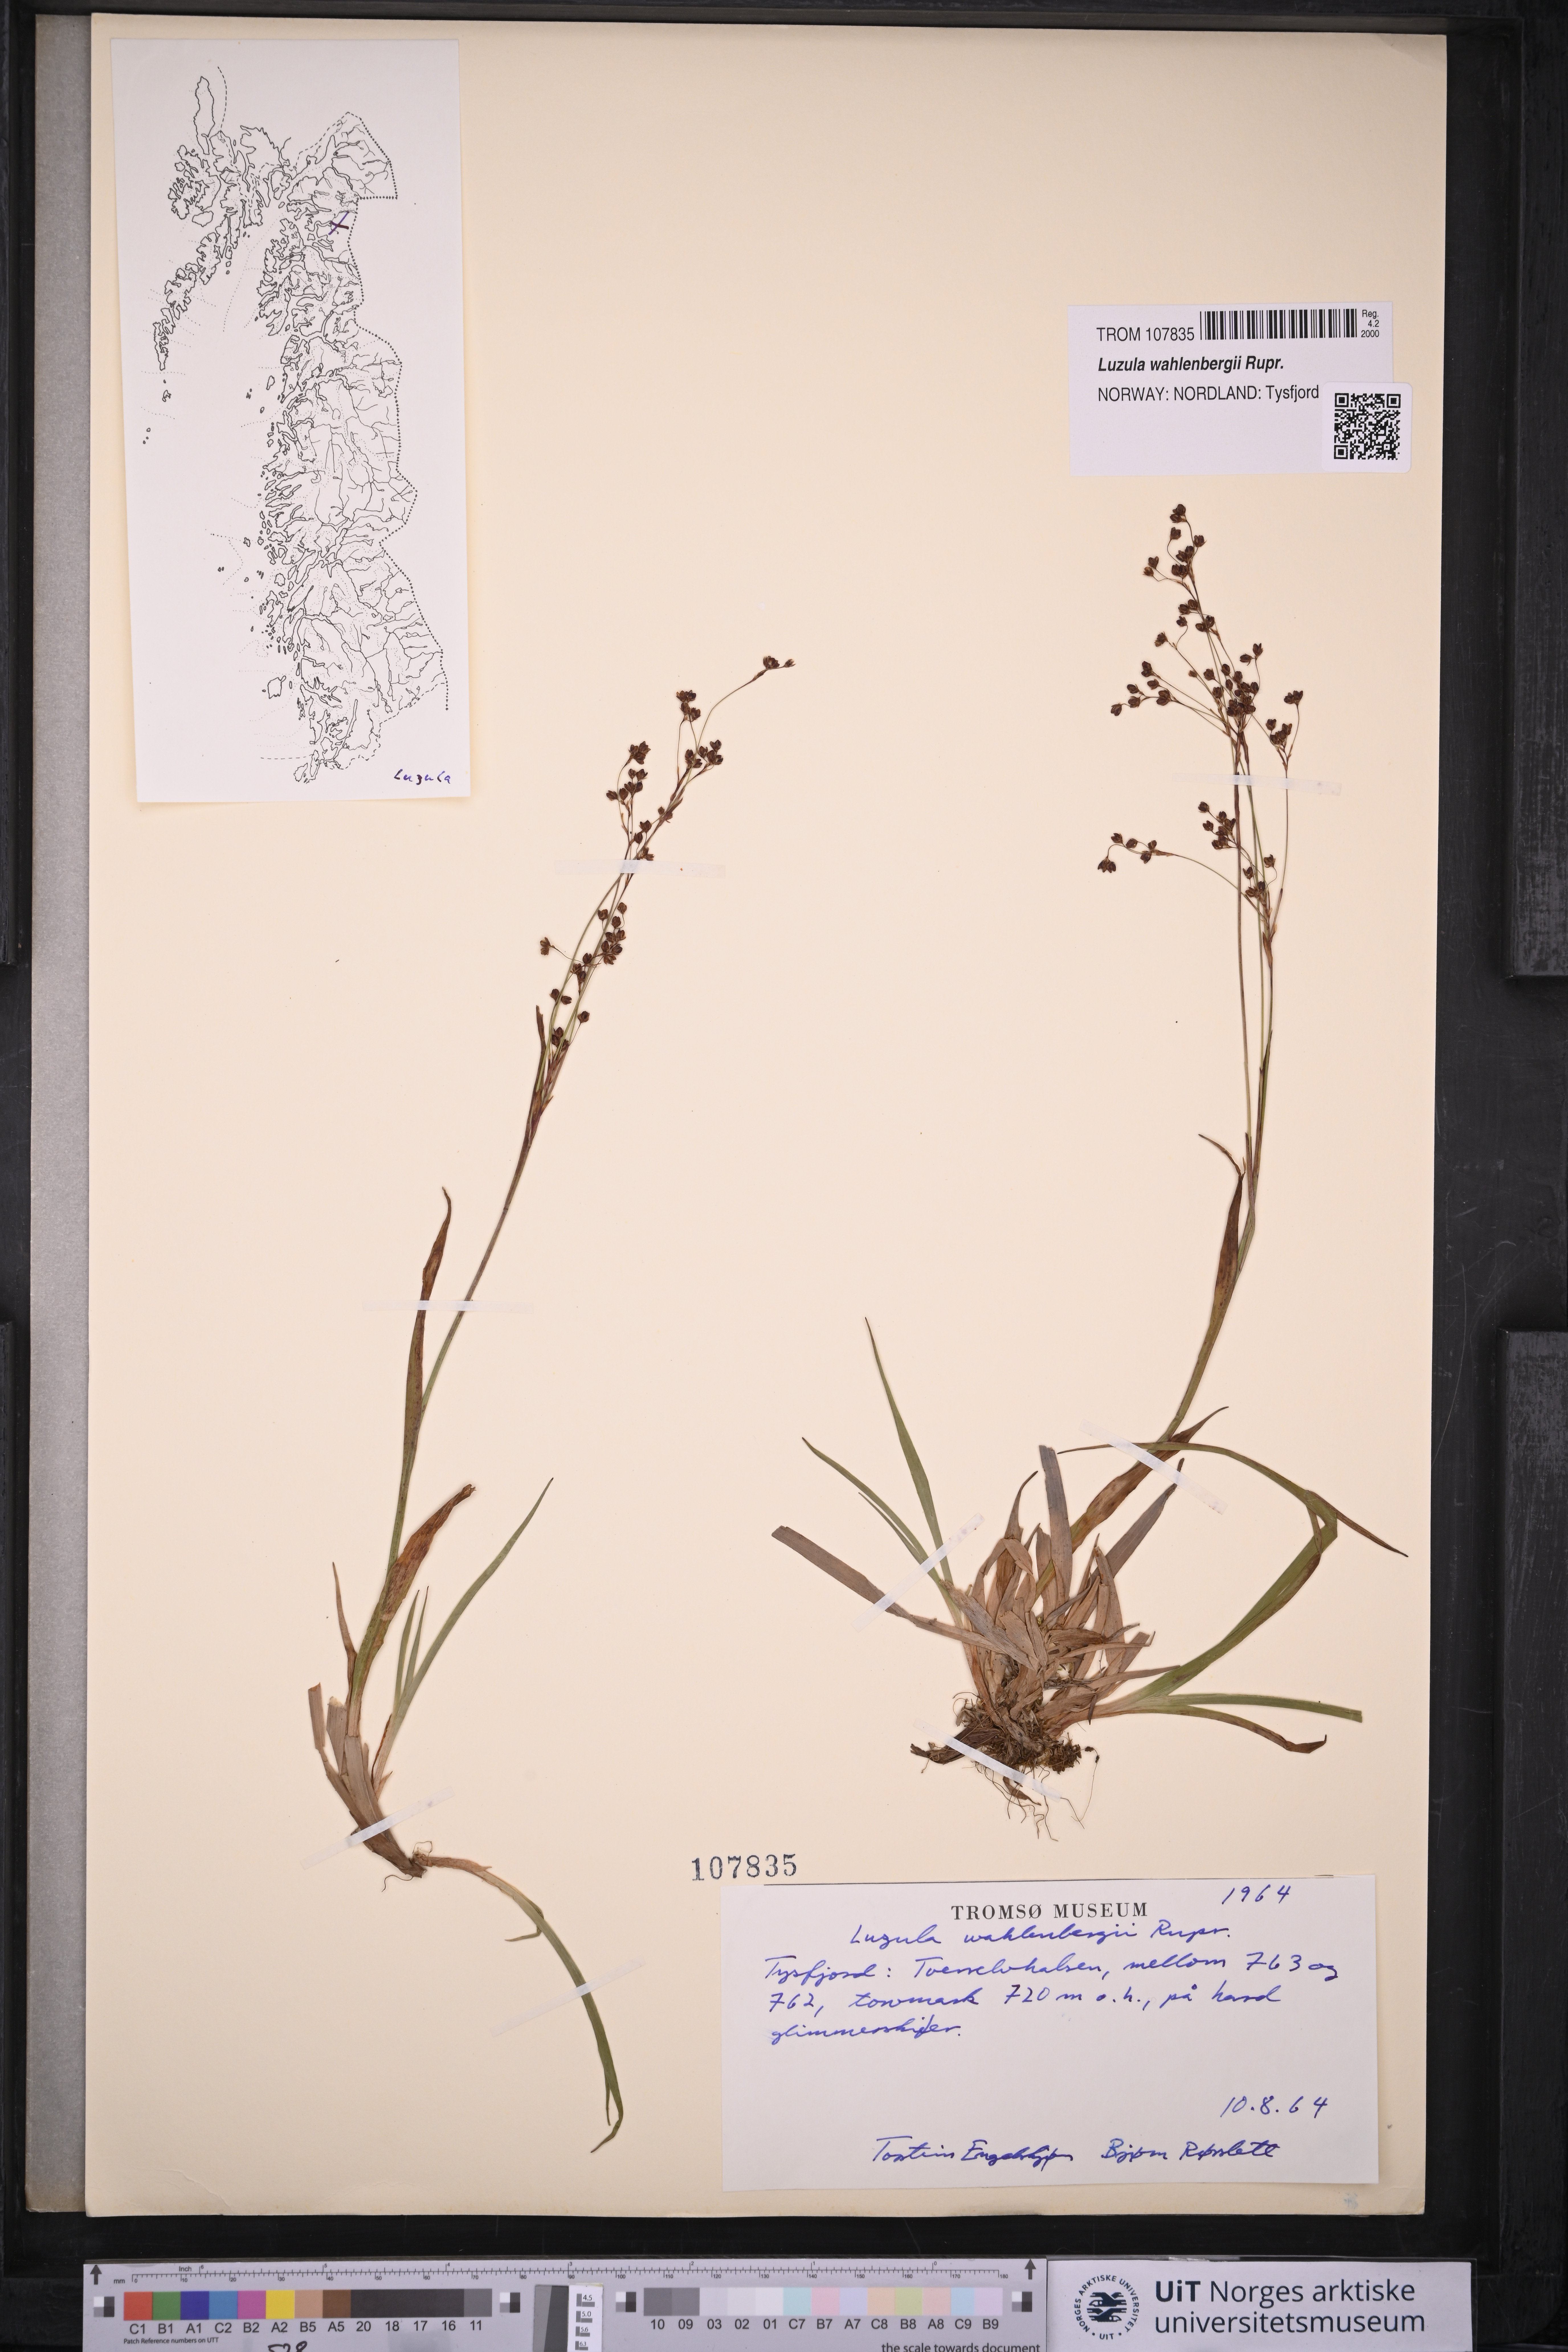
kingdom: Plantae
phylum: Tracheophyta
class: Liliopsida
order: Poales
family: Juncaceae
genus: Luzula
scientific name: Luzula wahlenbergii
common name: Wahlenberg's wood-rush
